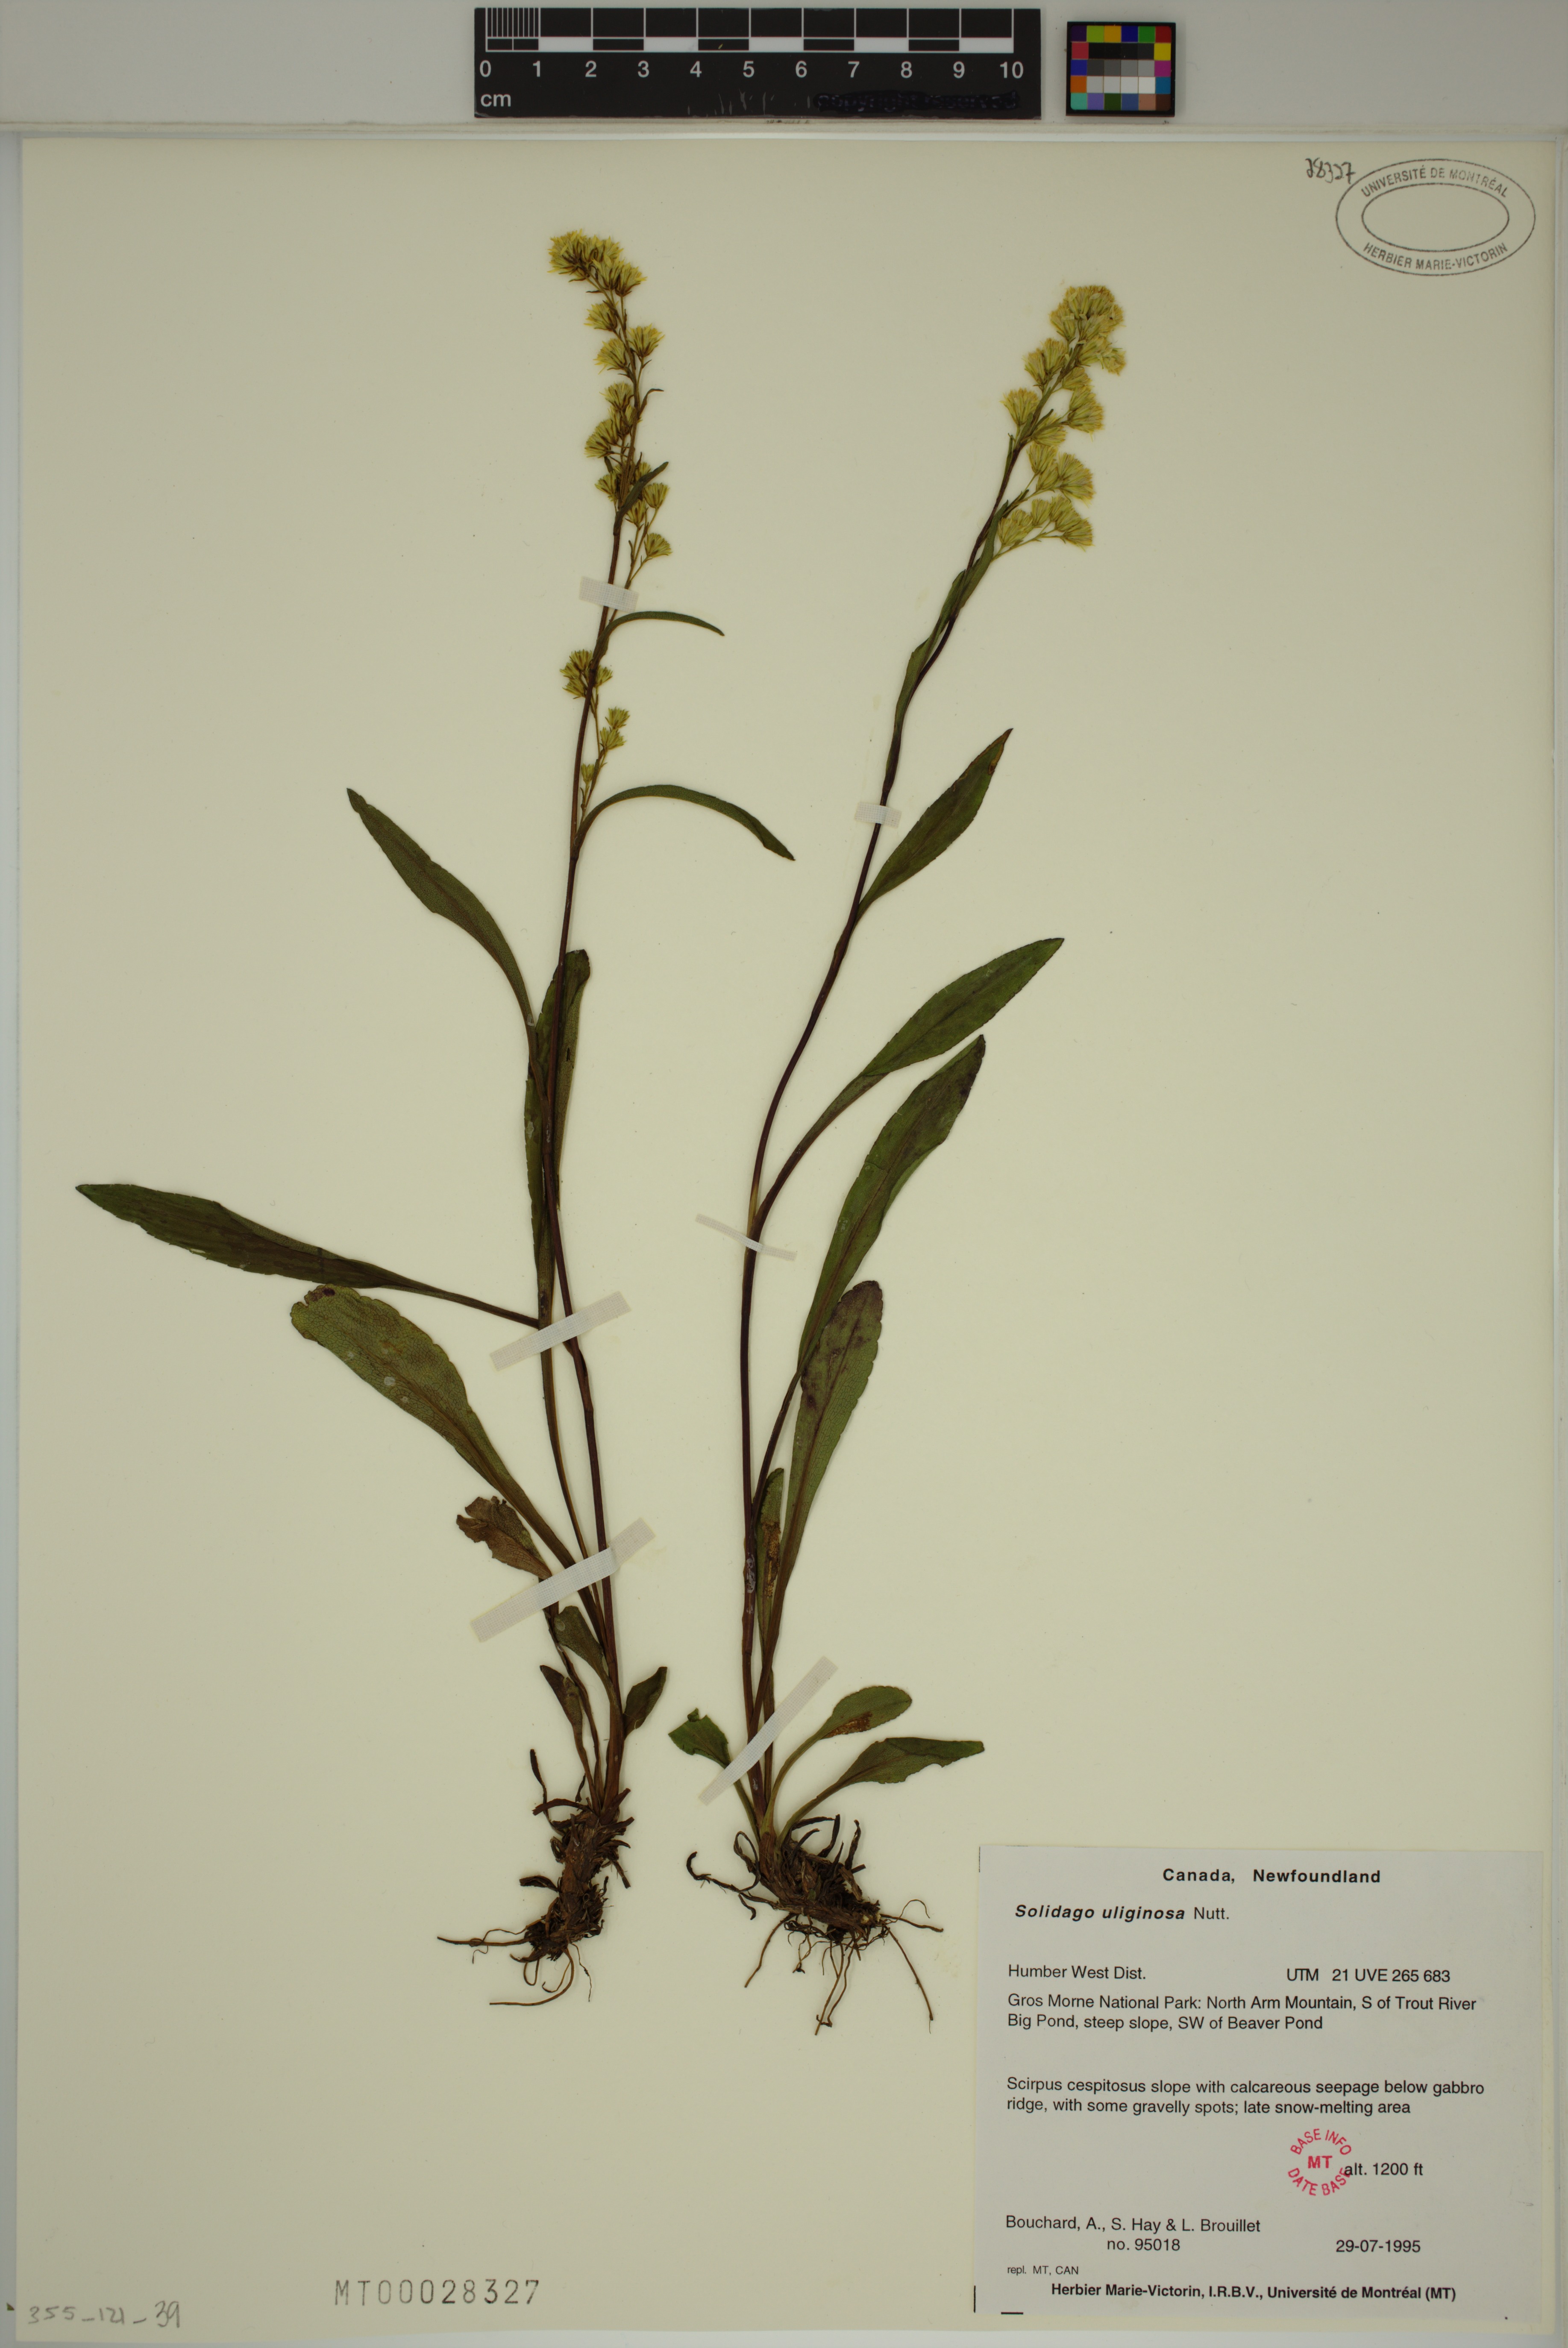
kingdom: Plantae
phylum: Tracheophyta
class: Magnoliopsida
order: Asterales
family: Asteraceae
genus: Solidago
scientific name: Solidago uliginosa
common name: Bog goldenrod
